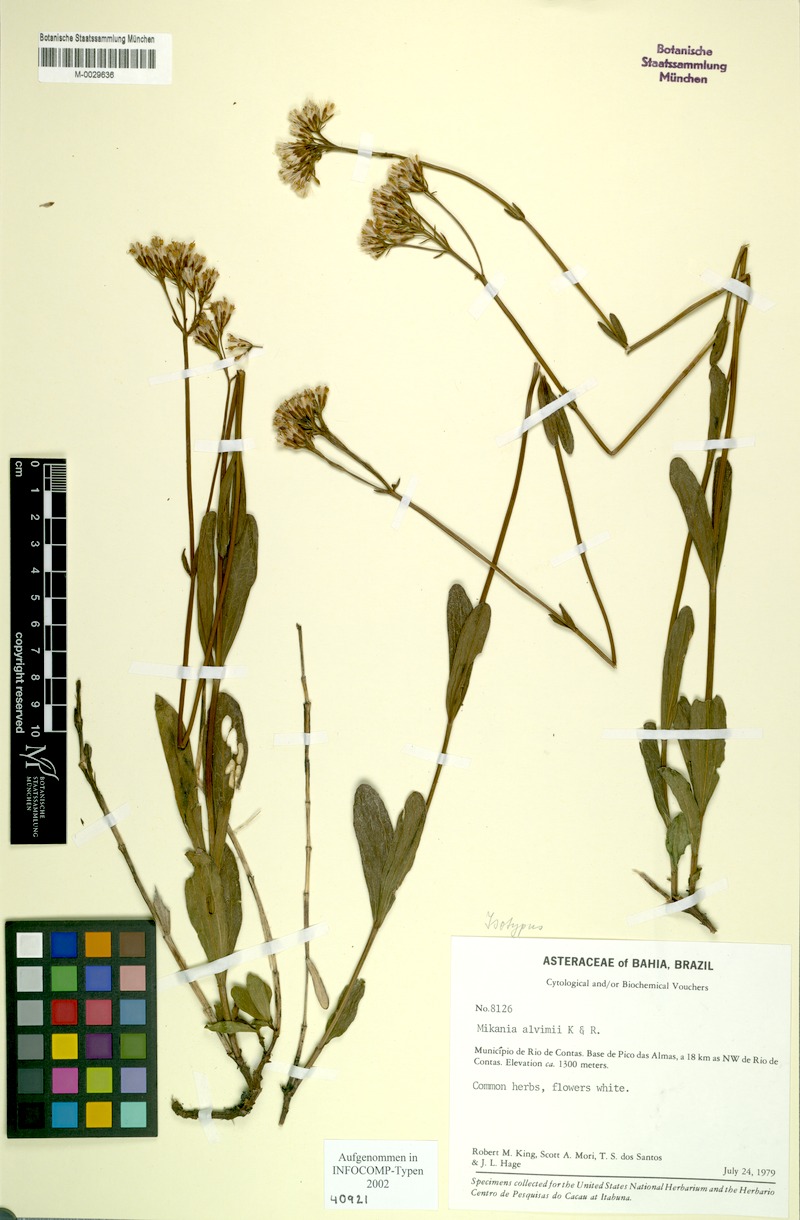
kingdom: Plantae
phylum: Tracheophyta
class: Magnoliopsida
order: Asterales
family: Asteraceae
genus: Mikania
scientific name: Mikania alvimii
